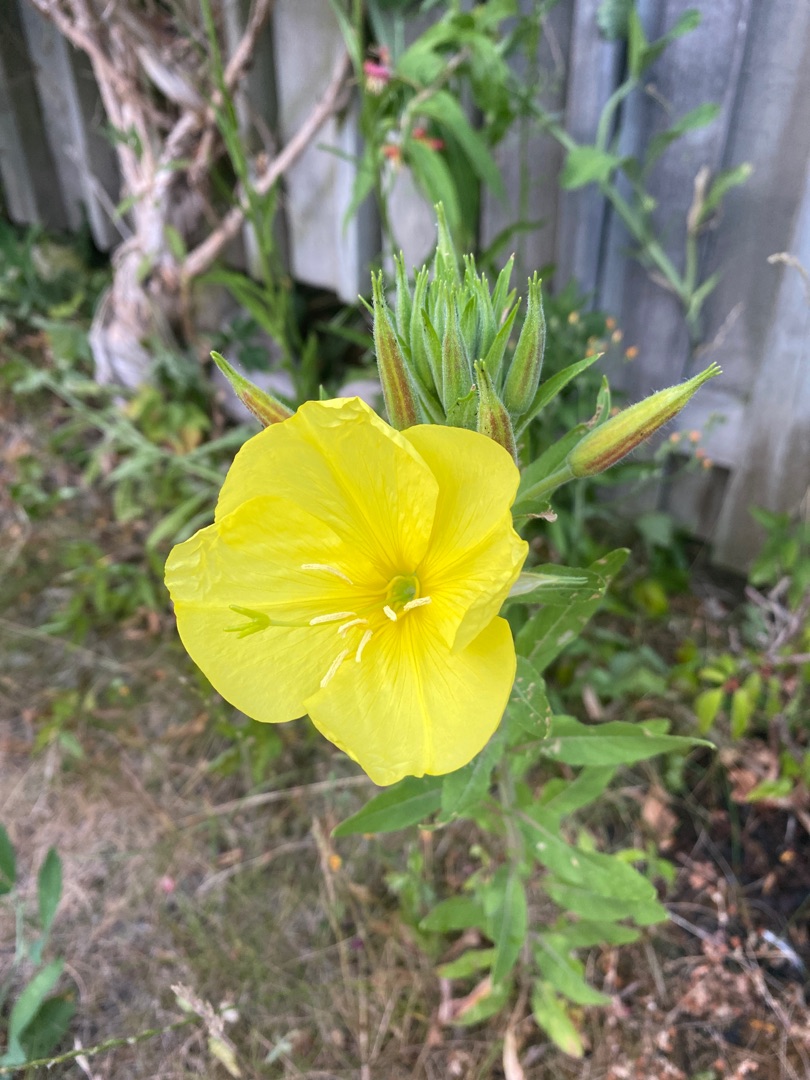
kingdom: Plantae
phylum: Tracheophyta
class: Magnoliopsida
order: Myrtales
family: Onagraceae
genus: Oenothera
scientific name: Oenothera glazioviana
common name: Kæmpe-natlys
